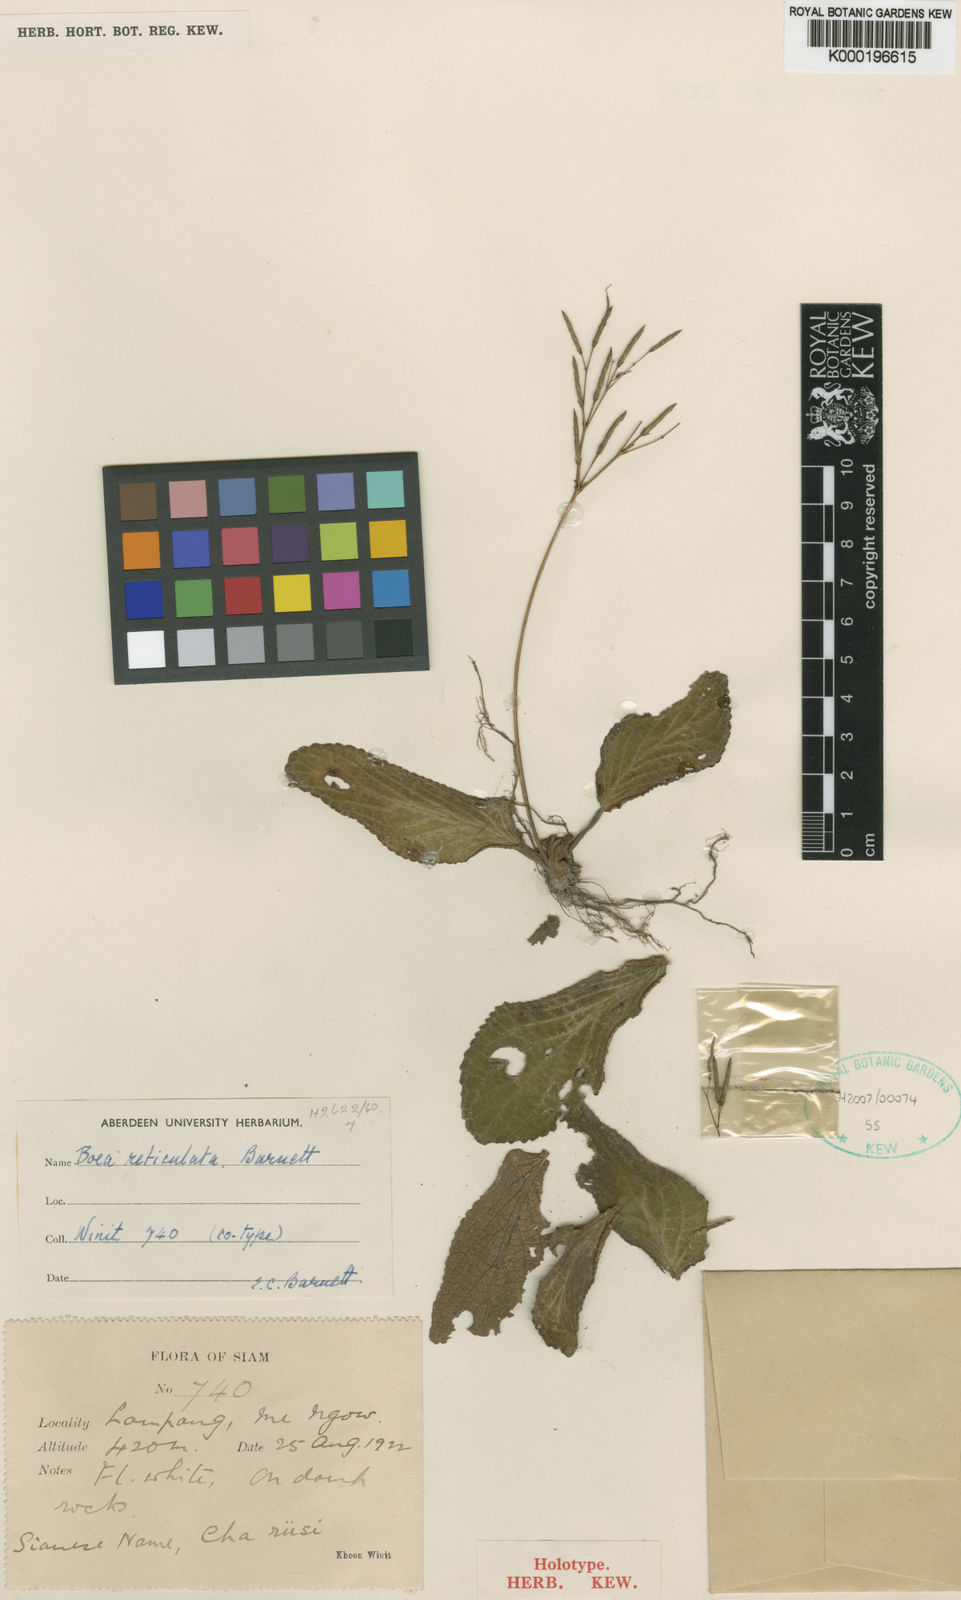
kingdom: Plantae
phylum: Tracheophyta
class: Magnoliopsida
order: Lamiales
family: Gesneriaceae
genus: Middletonia
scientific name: Middletonia multiflora
